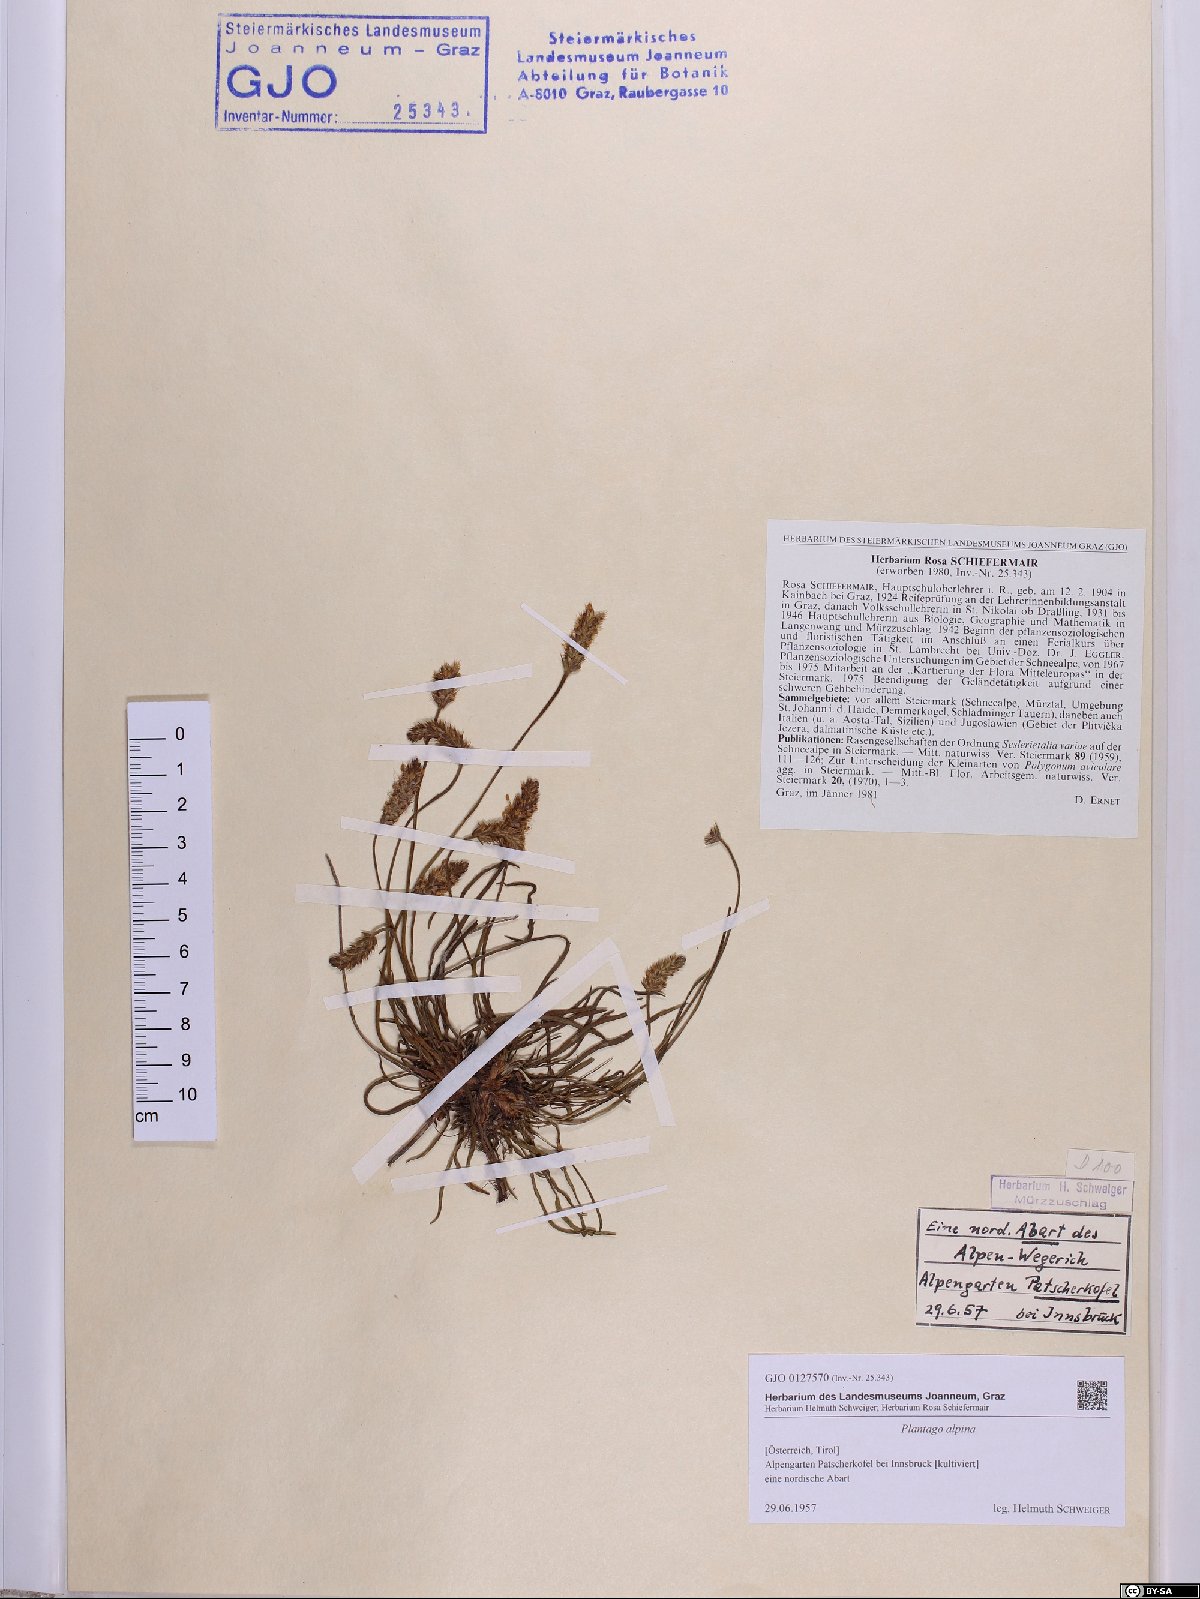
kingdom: Plantae
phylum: Tracheophyta
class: Magnoliopsida
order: Lamiales
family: Plantaginaceae
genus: Plantago
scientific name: Plantago alpina
